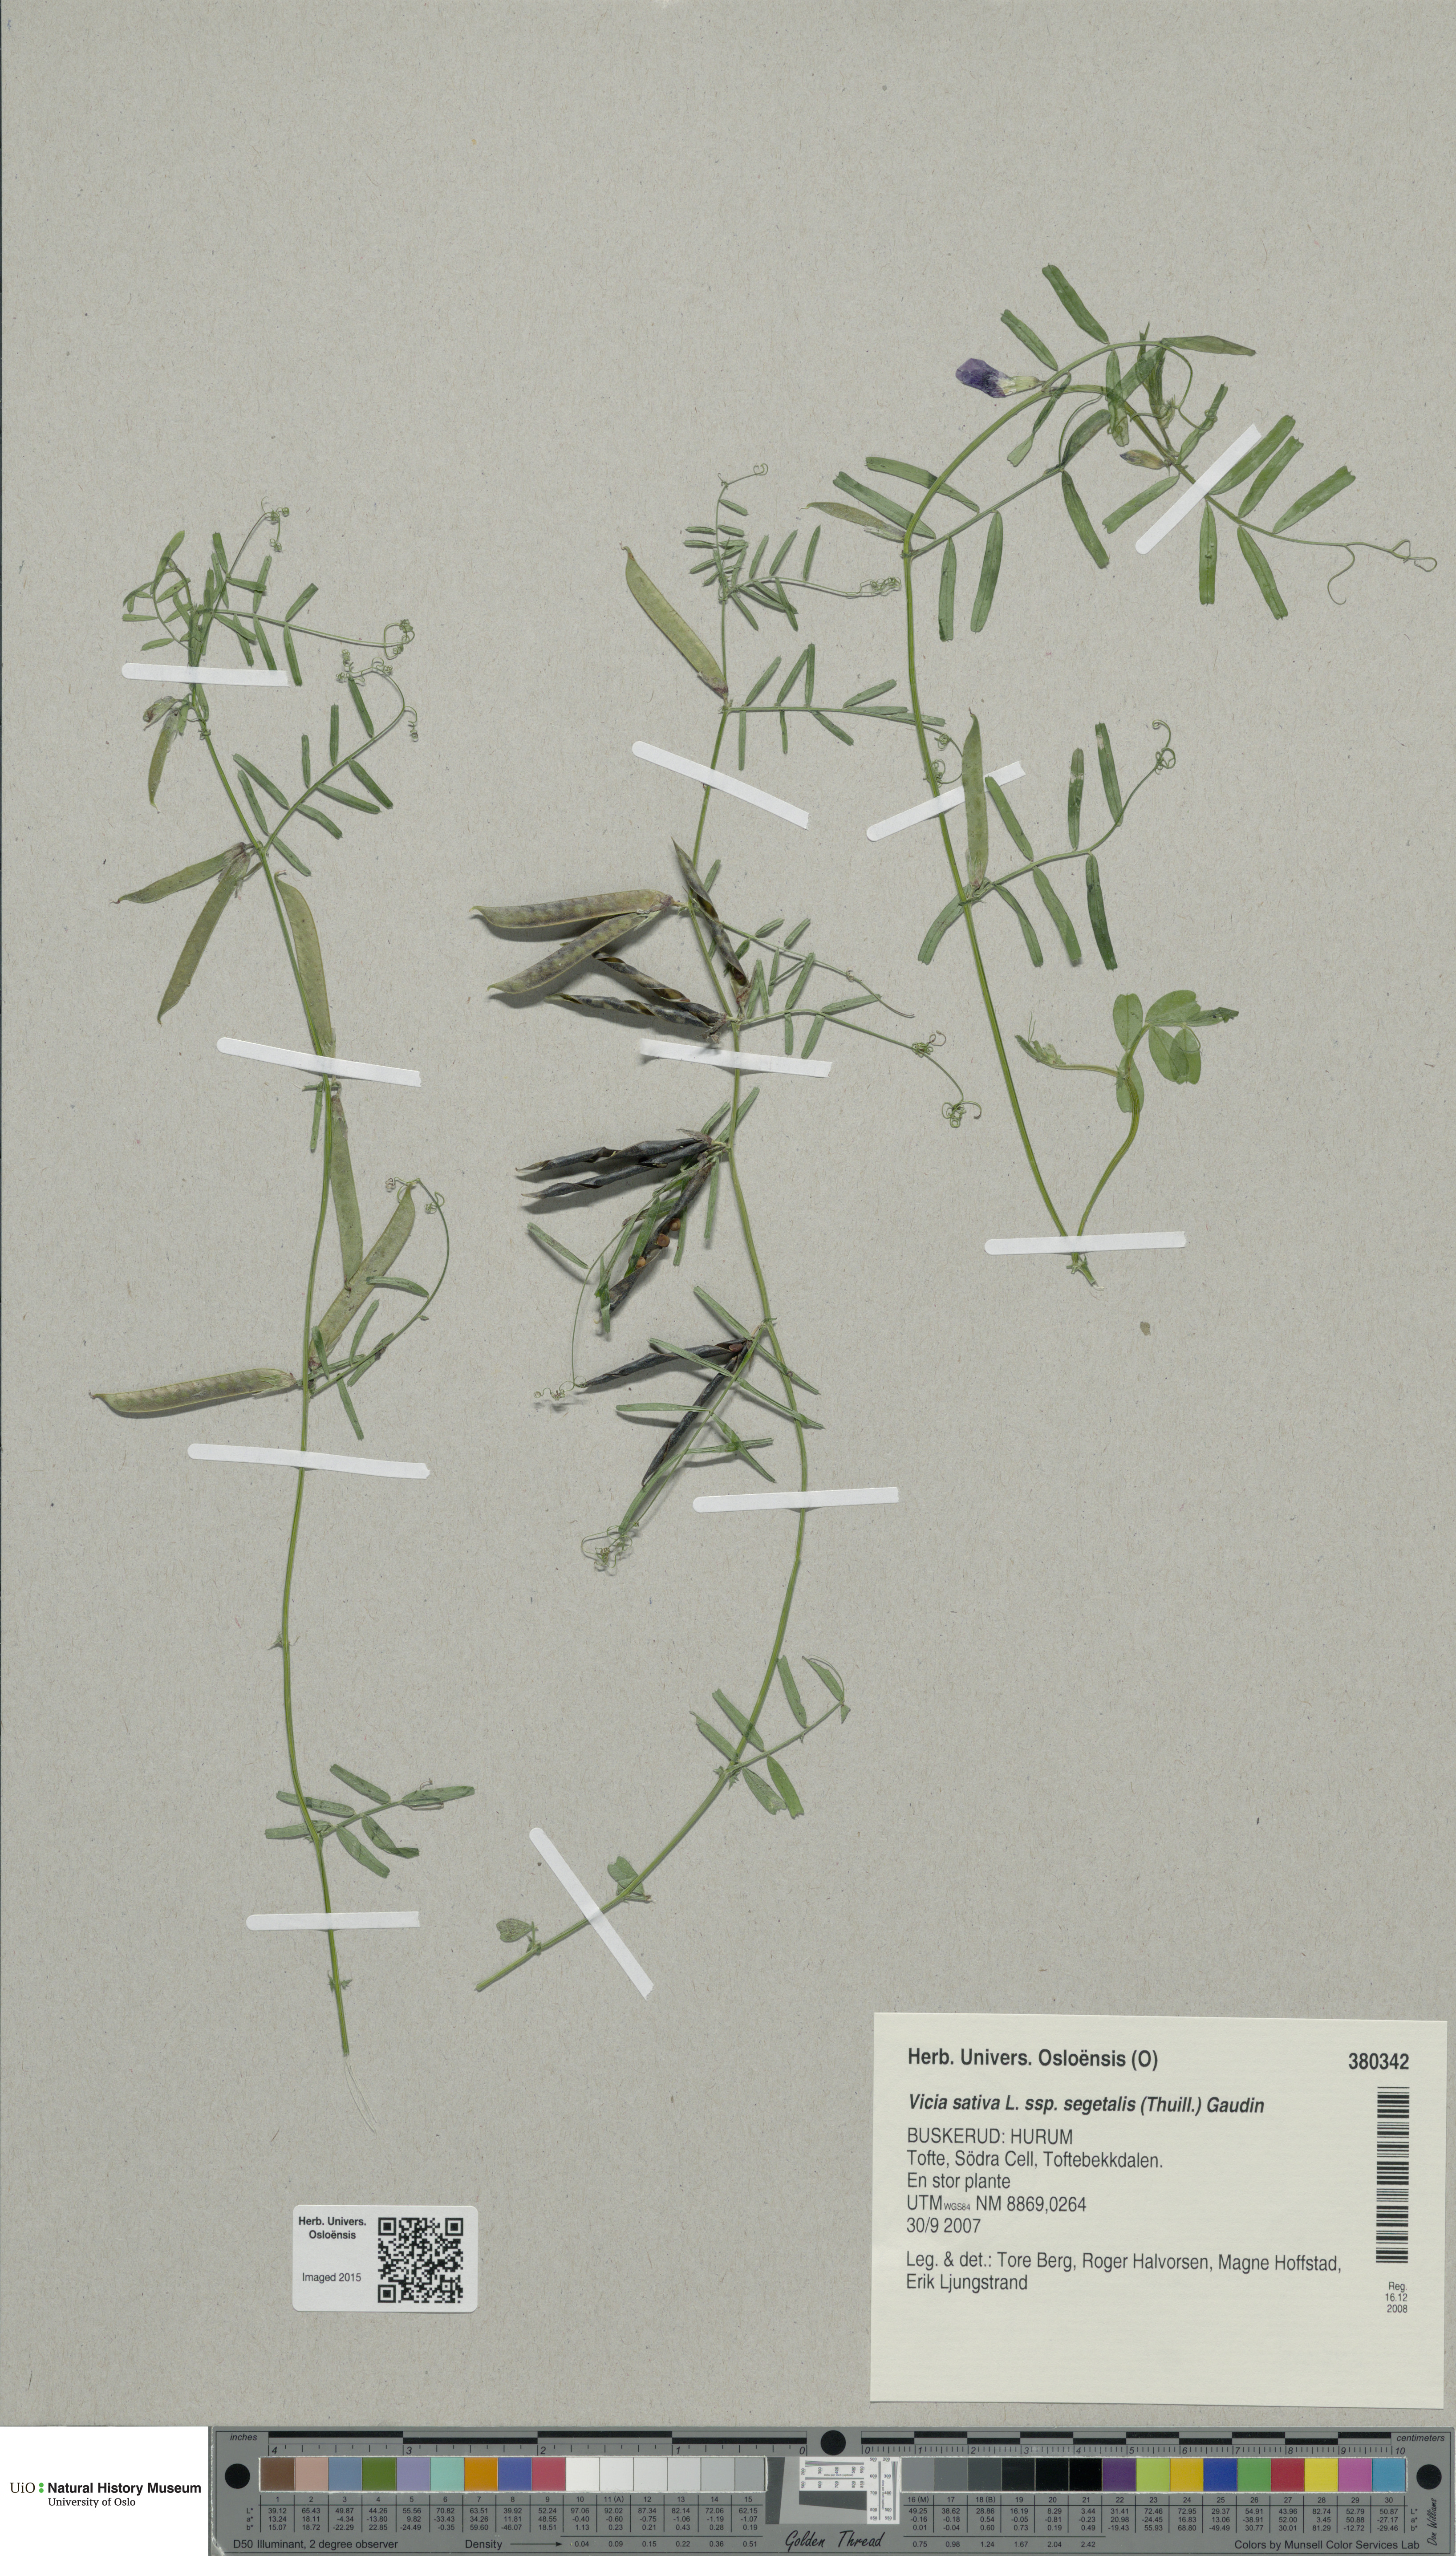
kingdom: Plantae
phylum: Tracheophyta
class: Magnoliopsida
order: Fabales
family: Fabaceae
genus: Vicia
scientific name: Vicia sativa
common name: Garden vetch
